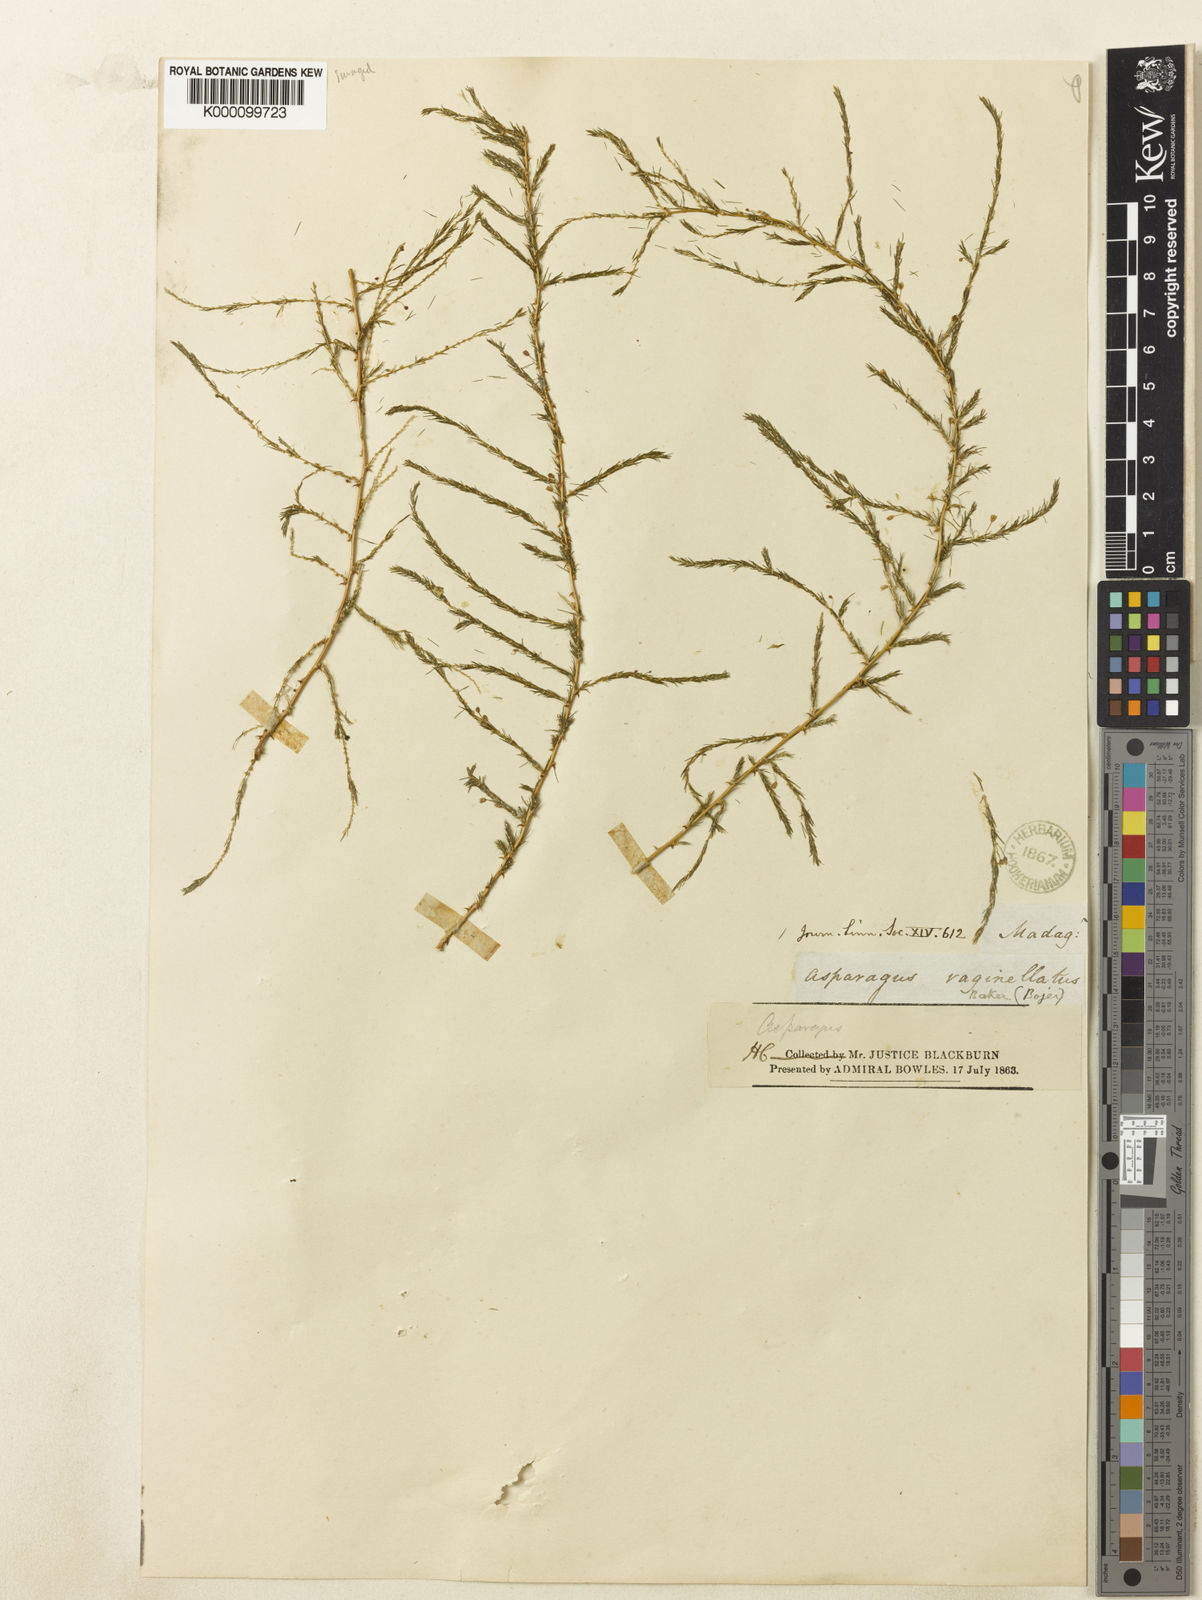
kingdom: Plantae
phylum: Tracheophyta
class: Liliopsida
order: Asparagales
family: Asparagaceae
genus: Asparagus
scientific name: Asparagus vaginellatus
